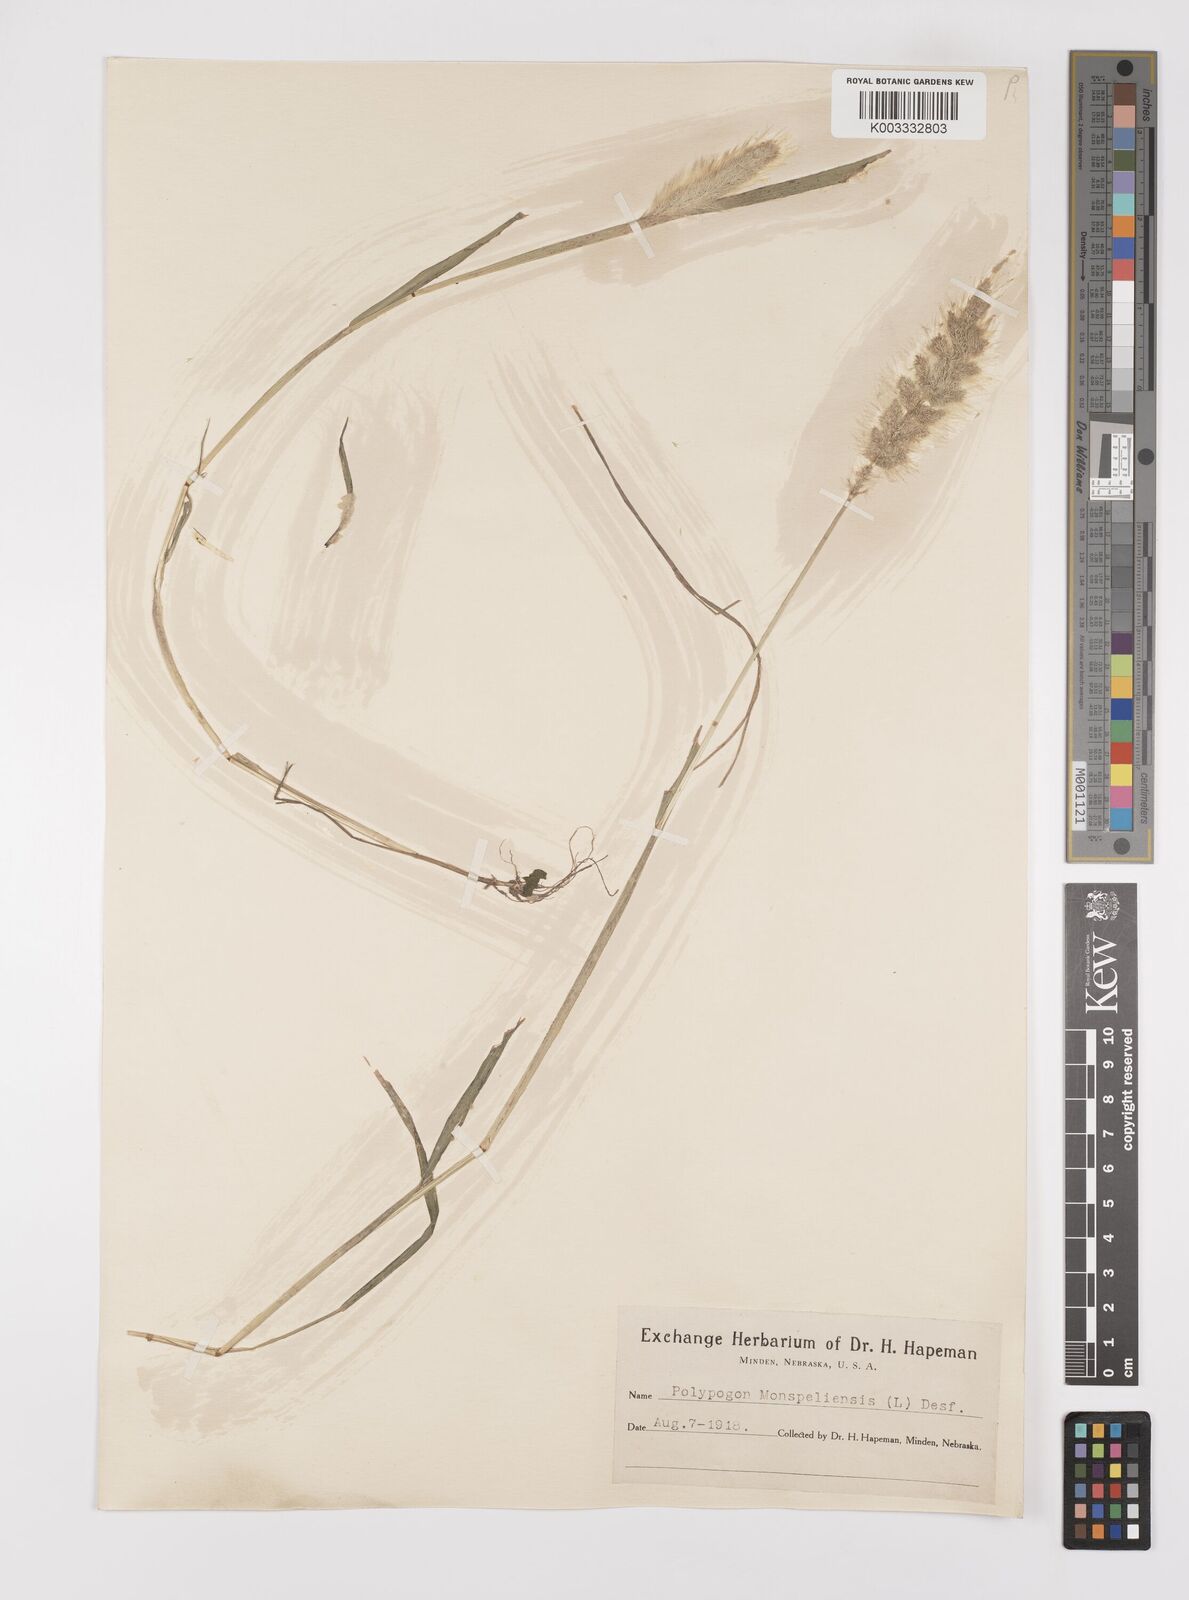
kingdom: Plantae
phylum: Tracheophyta
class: Liliopsida
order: Poales
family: Poaceae
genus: Polypogon
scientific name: Polypogon monspeliensis
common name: Annual rabbitsfoot grass
